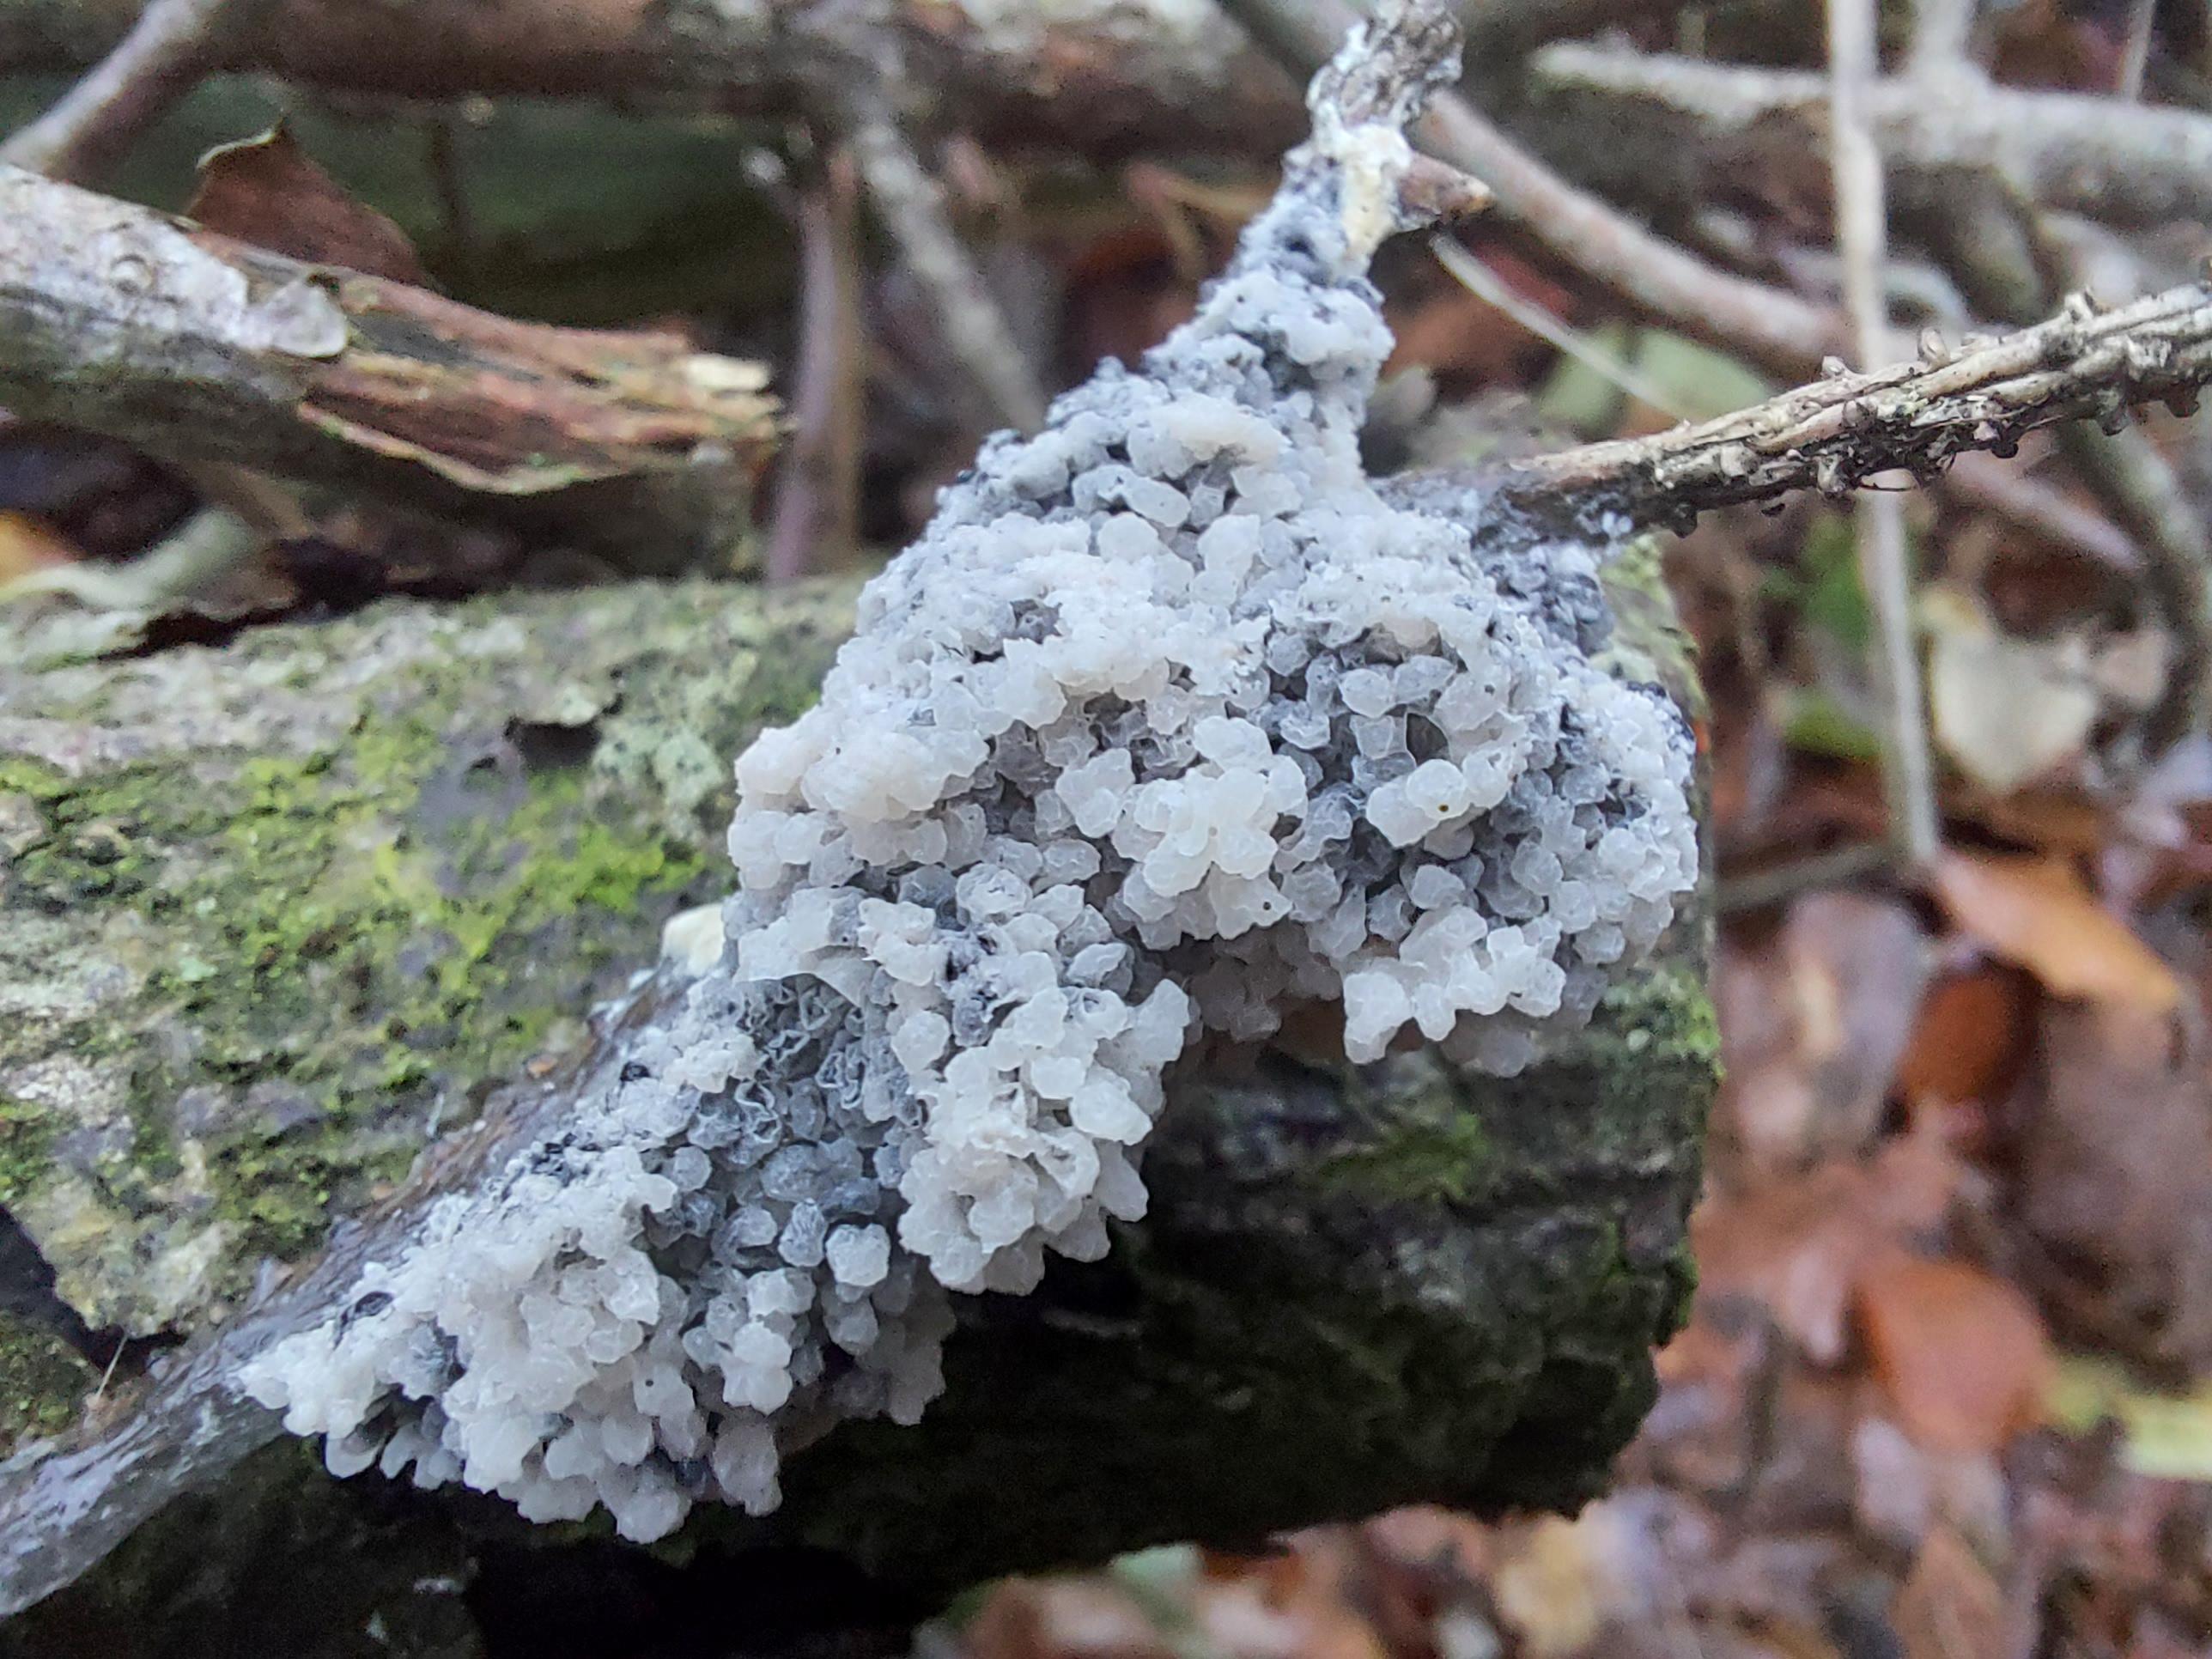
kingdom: Protozoa
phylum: Mycetozoa
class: Myxomycetes
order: Physarales
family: Physaraceae
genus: Didymium
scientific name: Didymium
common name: urteskum
